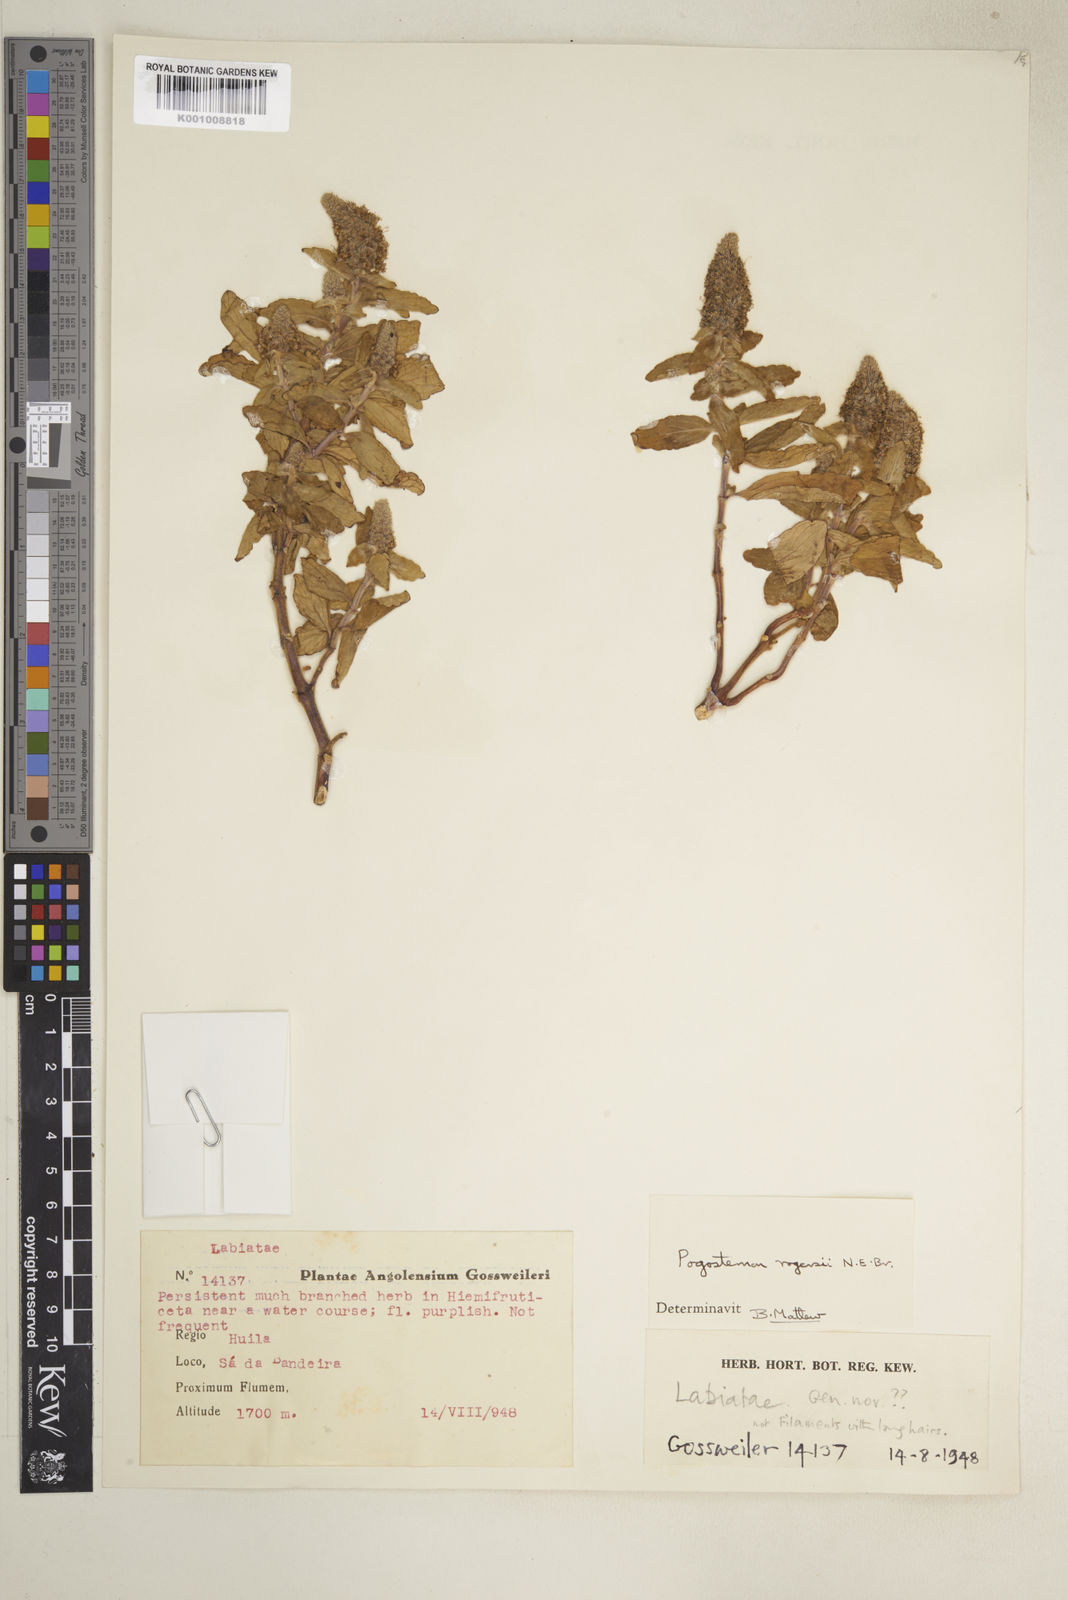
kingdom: Plantae
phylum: Tracheophyta
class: Magnoliopsida
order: Lamiales
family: Lamiaceae
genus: Pogostemon
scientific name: Pogostemon rogersii
